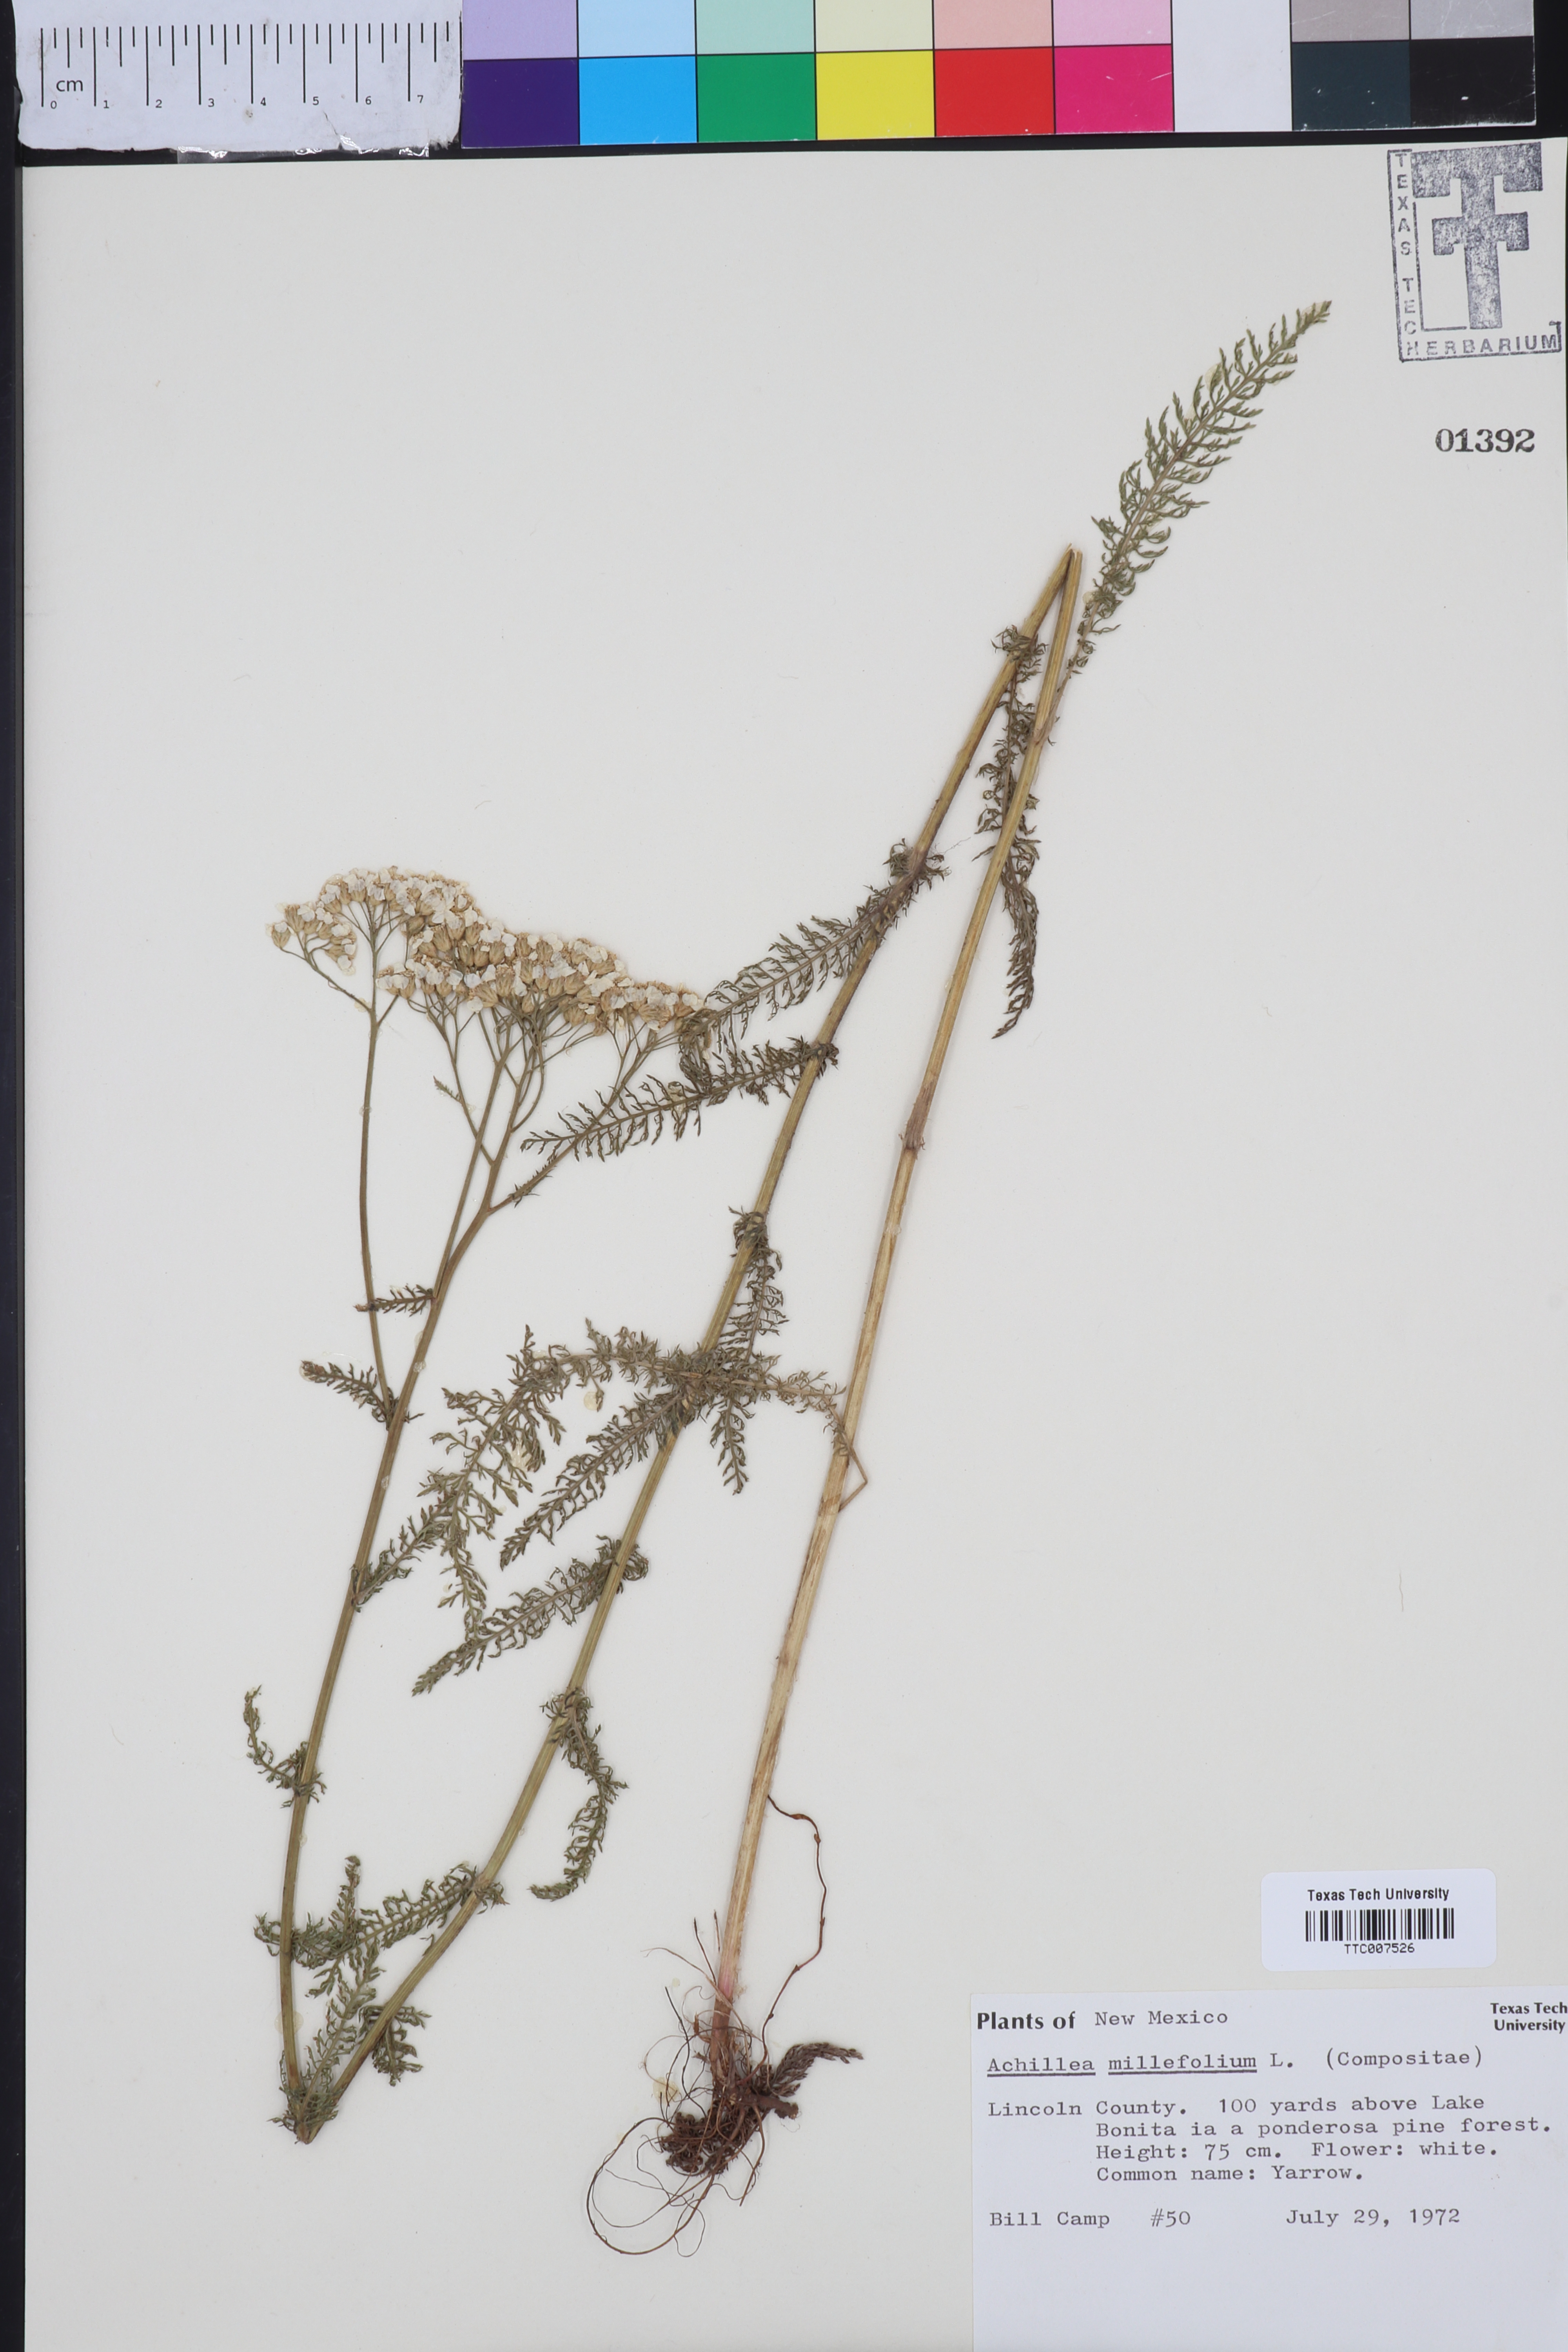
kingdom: Plantae
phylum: Tracheophyta
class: Magnoliopsida
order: Asterales
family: Asteraceae
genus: Achillea
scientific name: Achillea millefolium
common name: Yarrow
